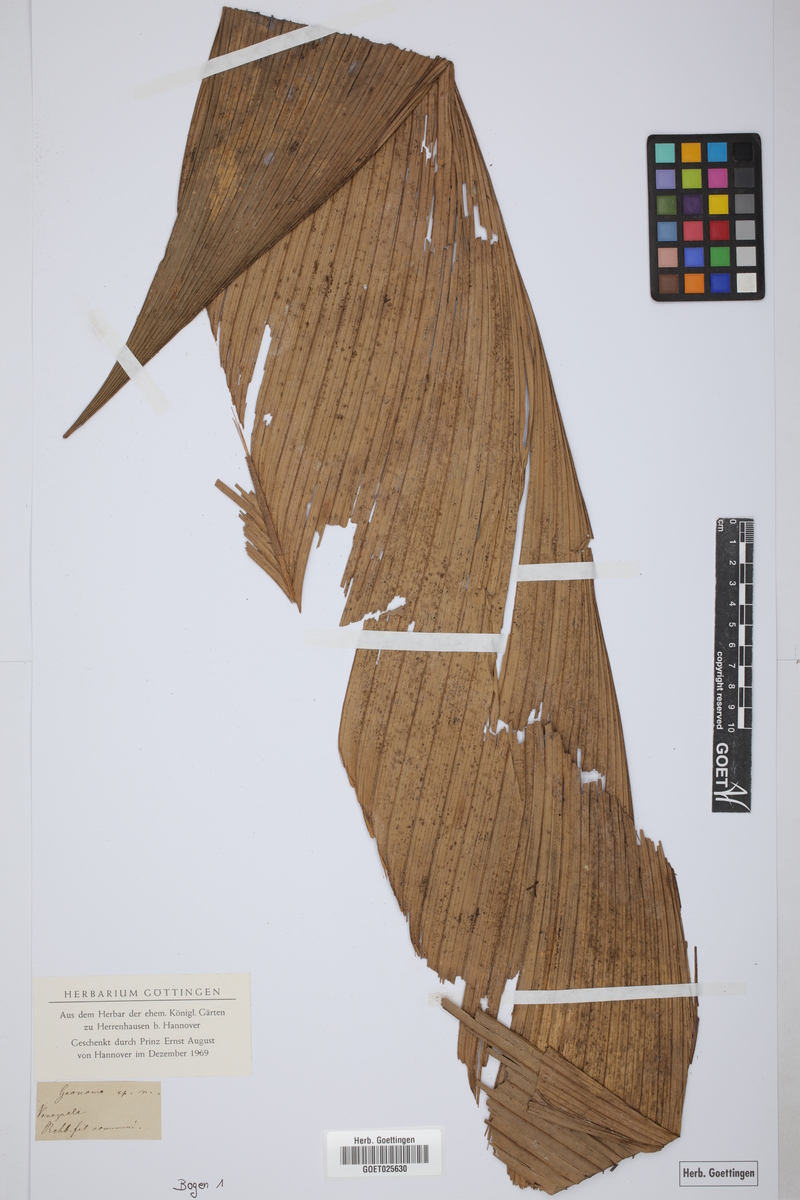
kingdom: Plantae
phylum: Tracheophyta
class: Liliopsida
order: Arecales
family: Arecaceae
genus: Geonoma
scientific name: Geonoma
